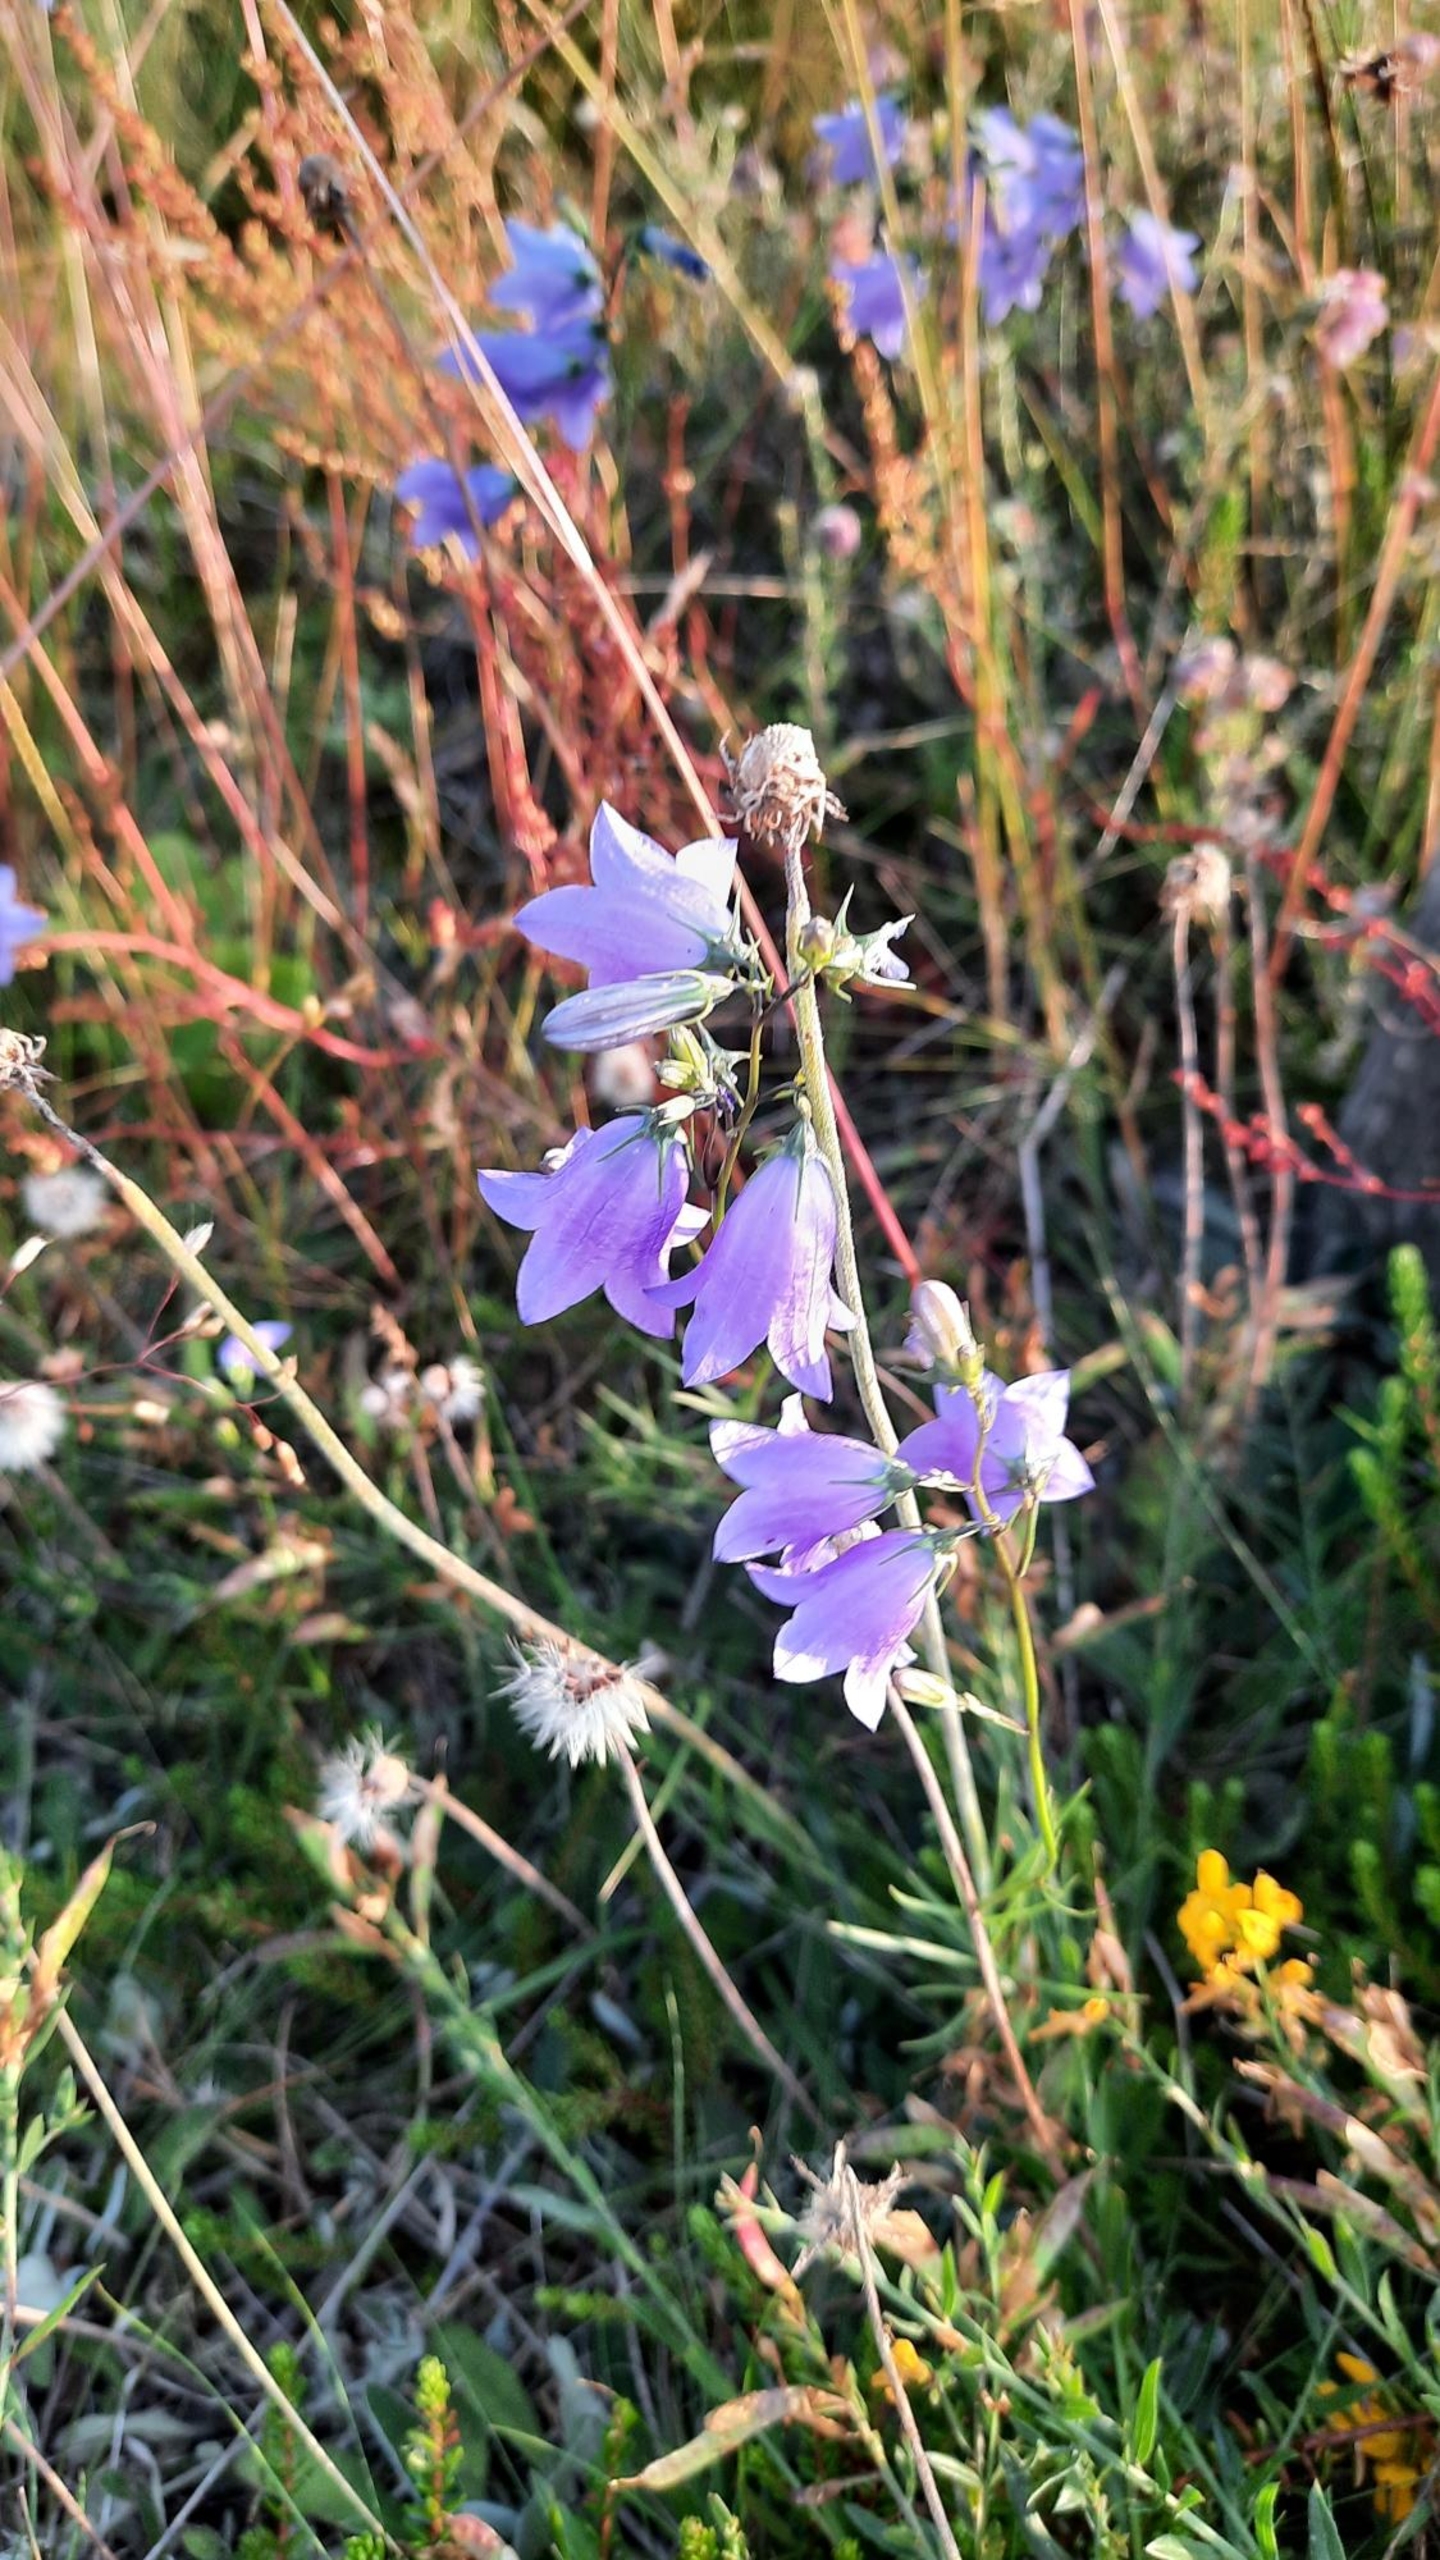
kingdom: Plantae
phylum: Tracheophyta
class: Magnoliopsida
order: Asterales
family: Campanulaceae
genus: Campanula
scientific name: Campanula rotundifolia
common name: Liden klokke
